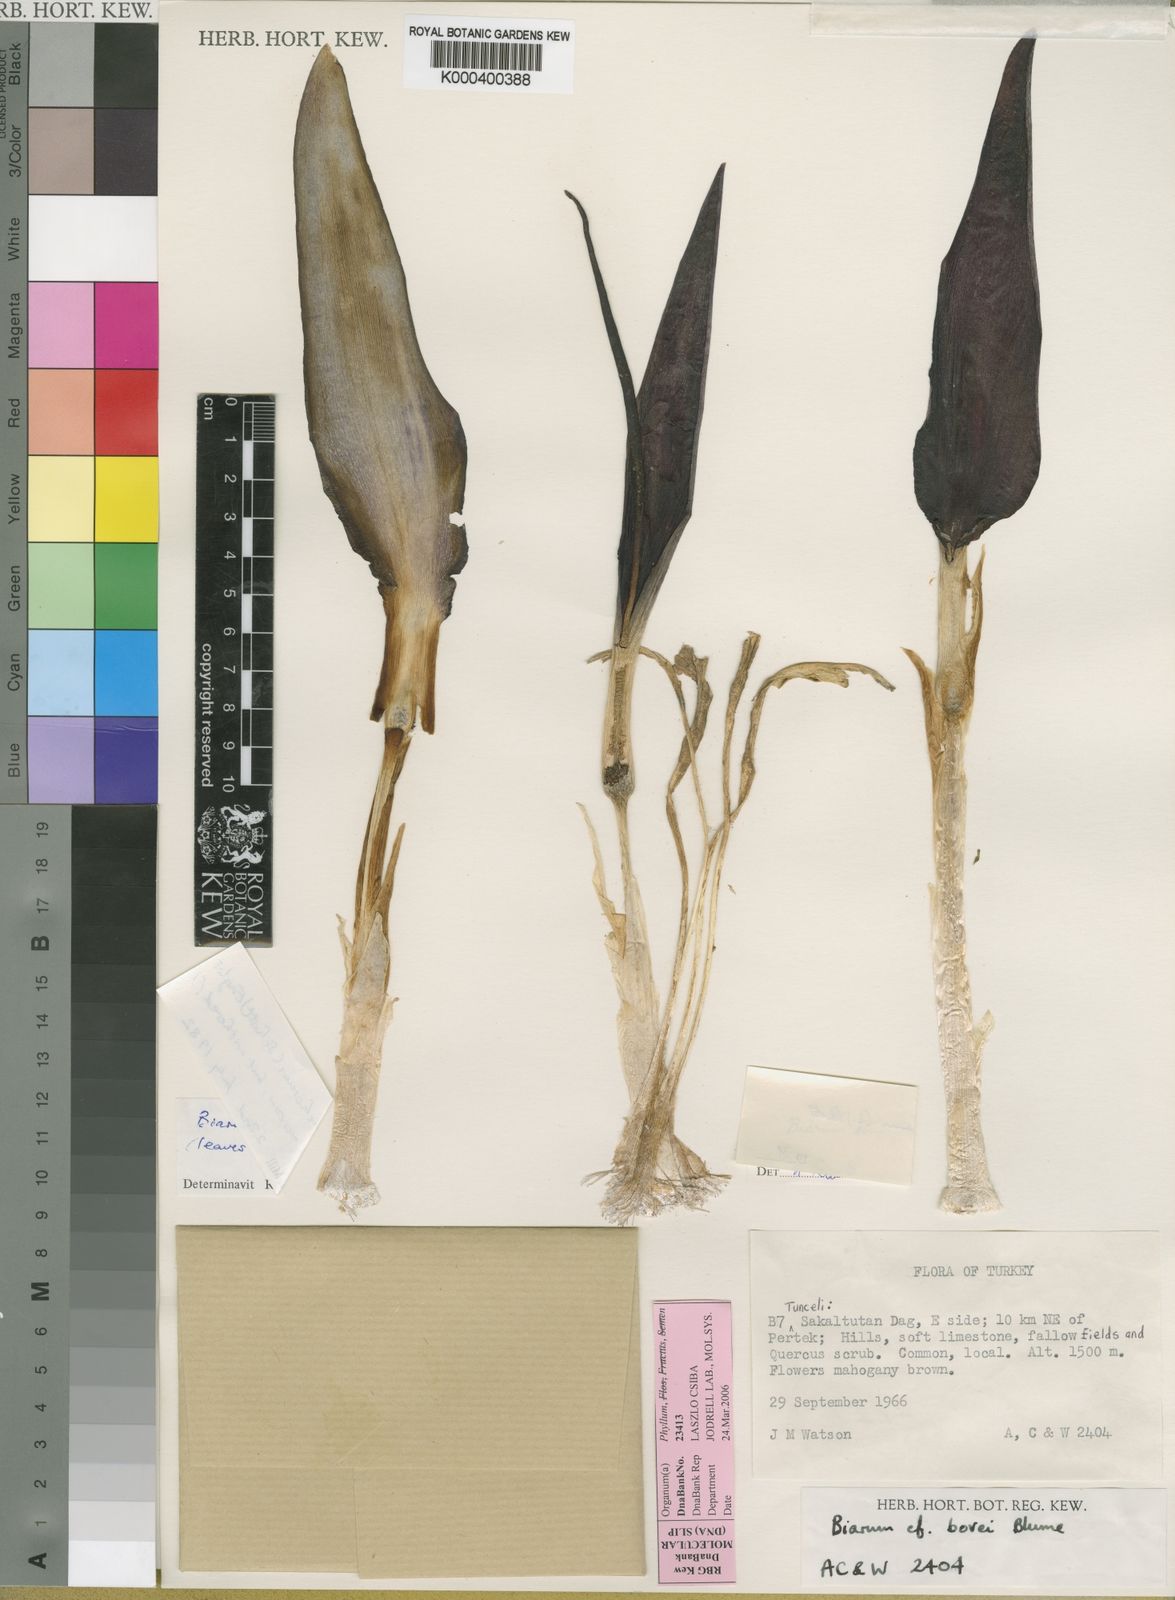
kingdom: Plantae
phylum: Tracheophyta
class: Liliopsida
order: Alismatales
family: Araceae
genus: Biarum
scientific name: Biarum carduchorum
